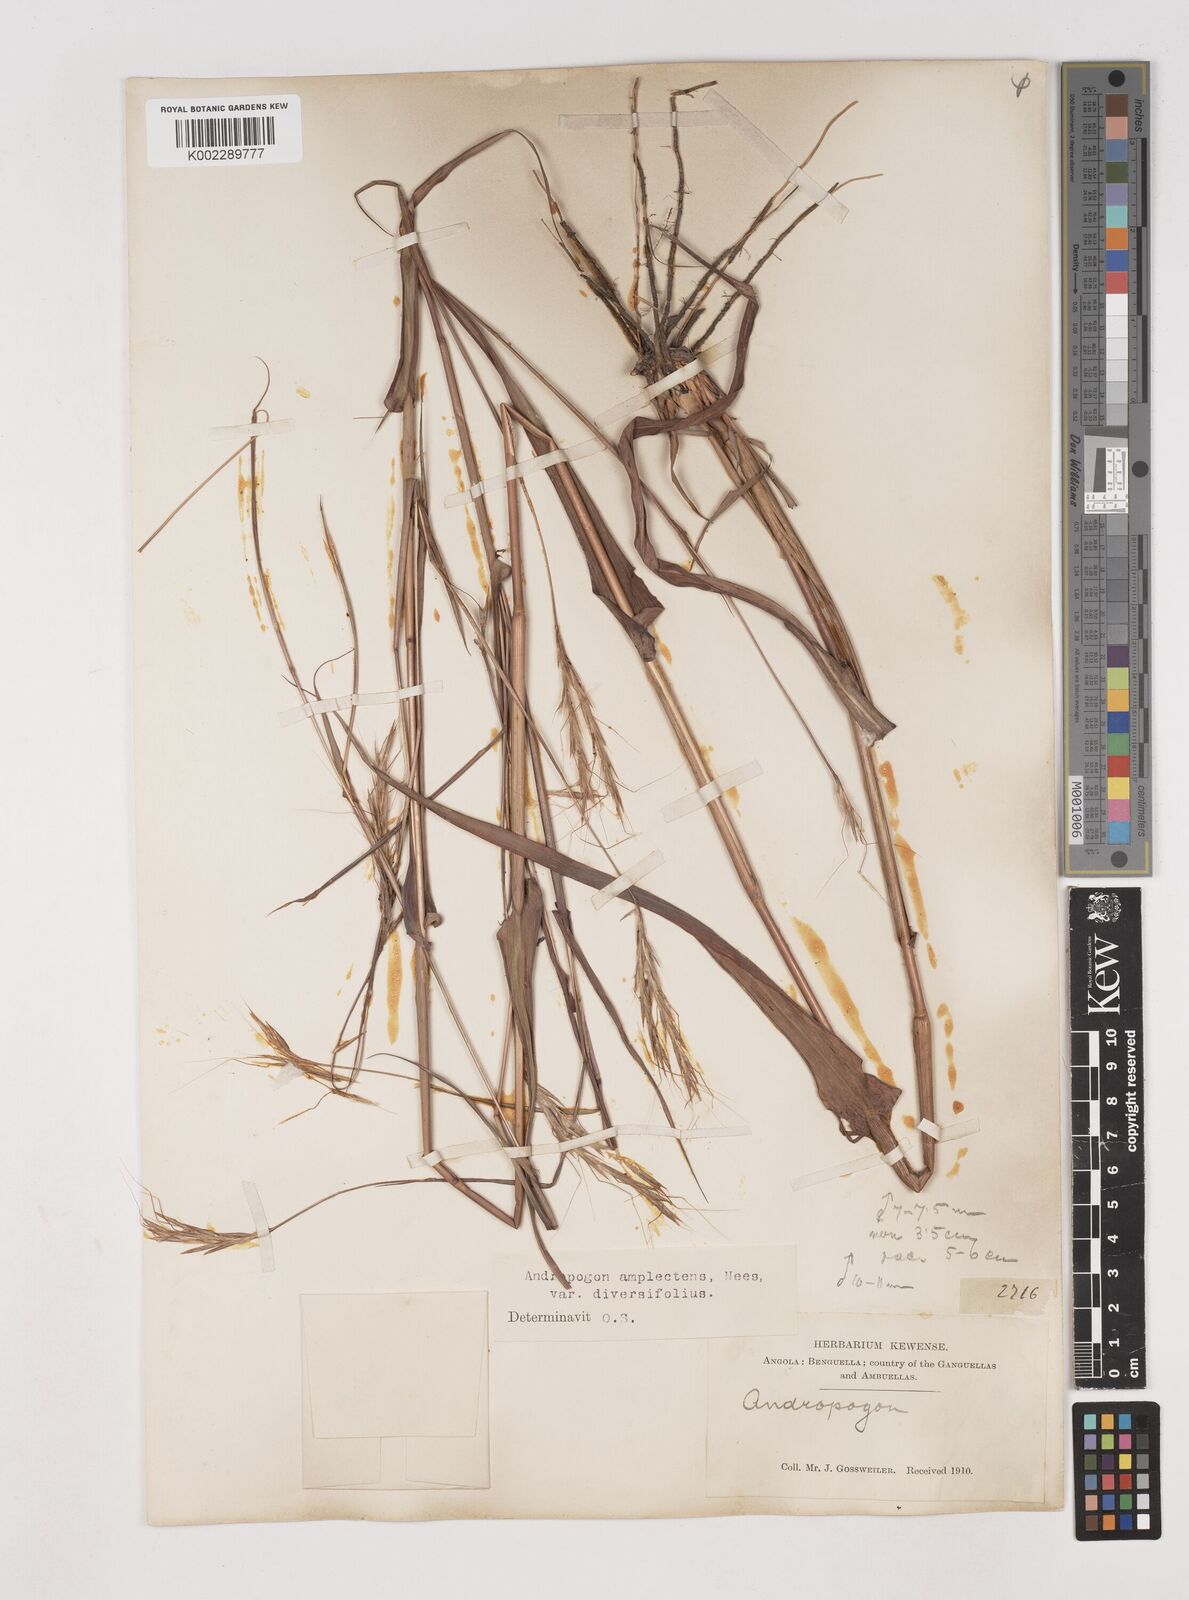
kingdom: Plantae
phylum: Tracheophyta
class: Liliopsida
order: Poales
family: Poaceae
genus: Diheteropogon
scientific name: Diheteropogon amplectens
